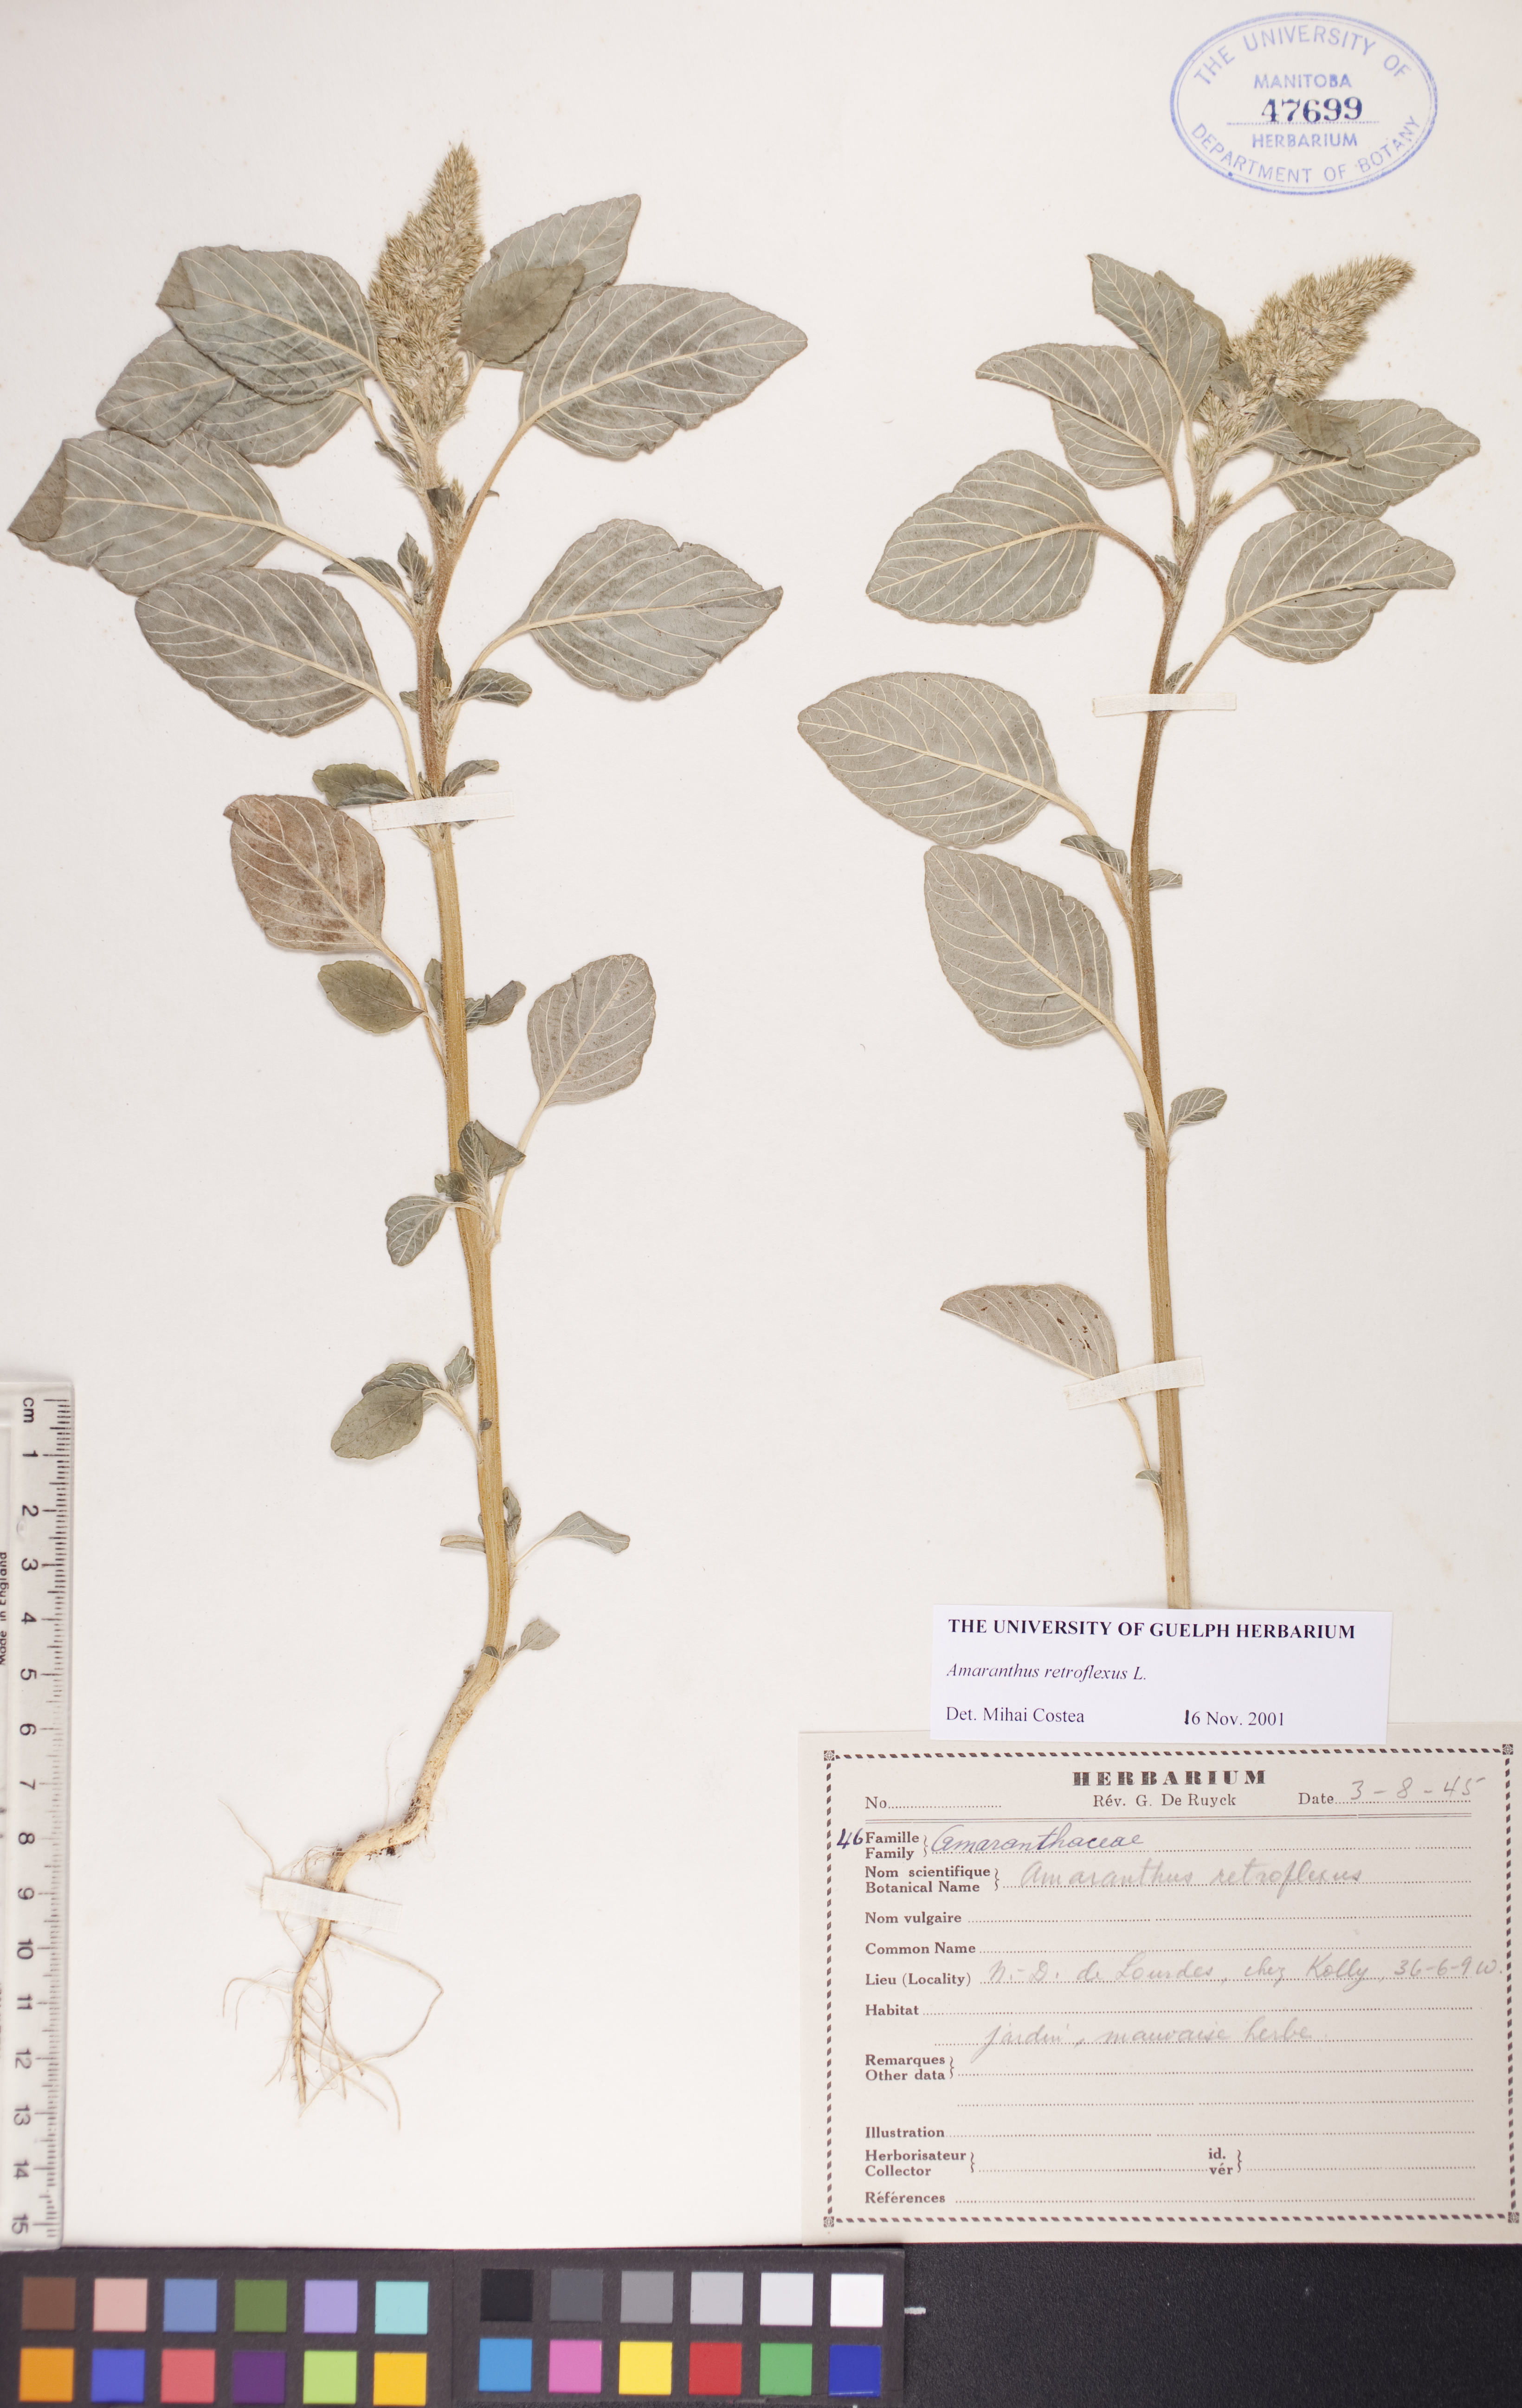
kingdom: Plantae
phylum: Tracheophyta
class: Magnoliopsida
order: Caryophyllales
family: Amaranthaceae
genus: Amaranthus
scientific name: Amaranthus retroflexus
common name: Redroot amaranth
